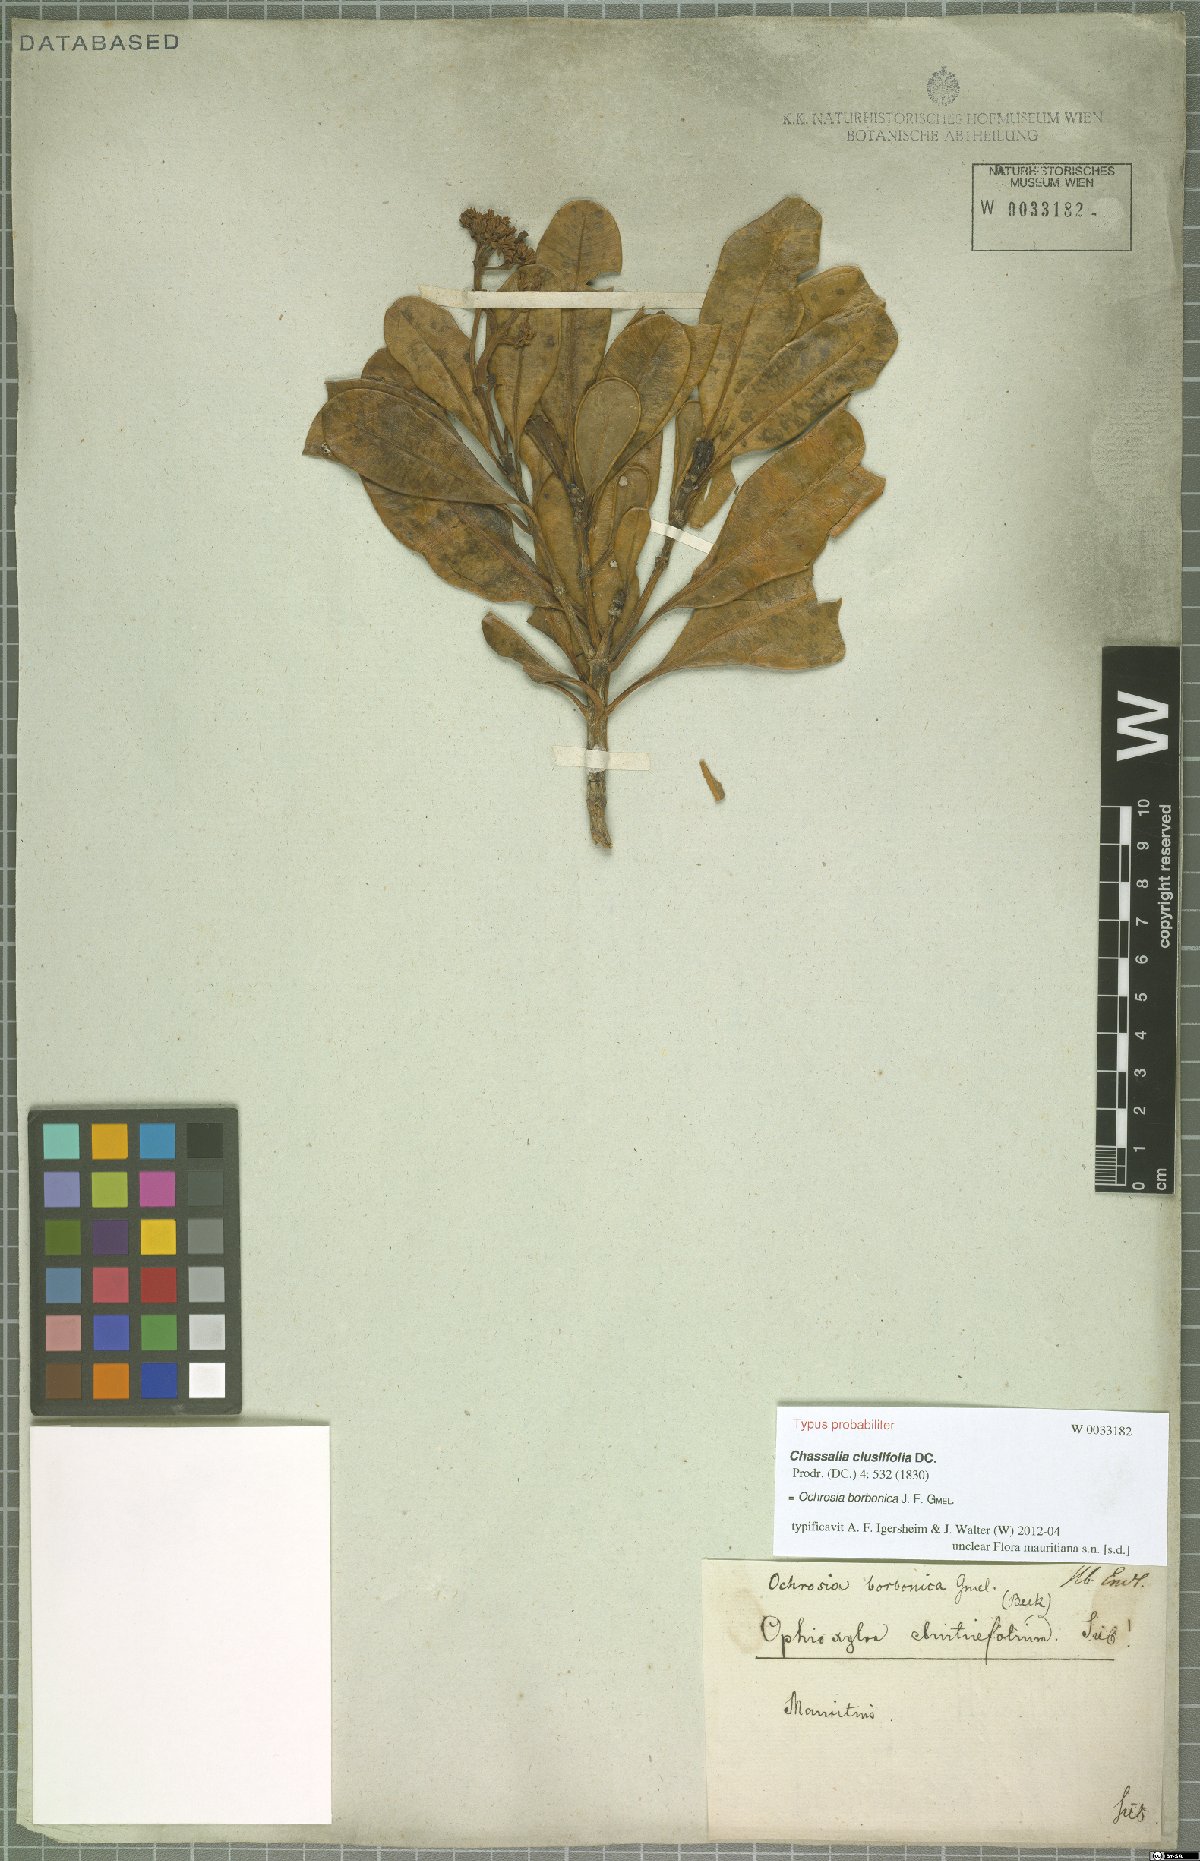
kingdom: Plantae
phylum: Tracheophyta
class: Magnoliopsida
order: Gentianales
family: Apocynaceae
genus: Ochrosia
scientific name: Ochrosia borbonica
